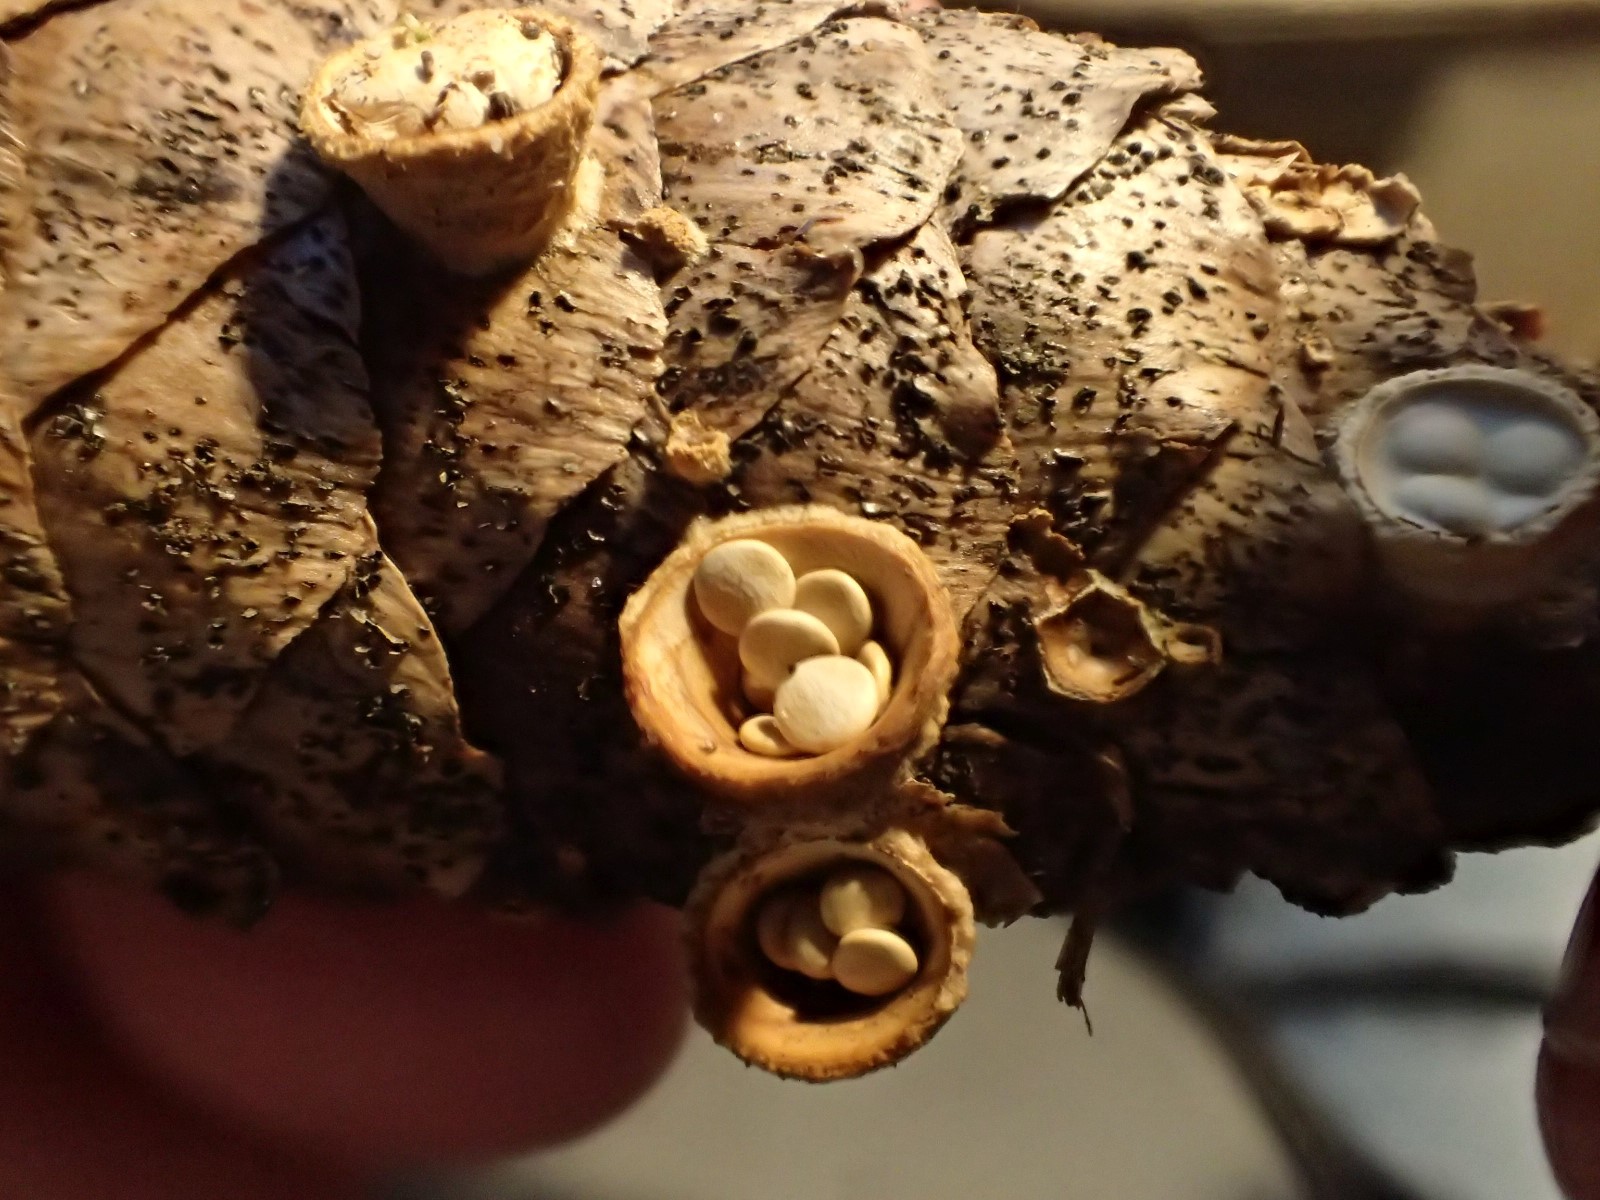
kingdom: Fungi
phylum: Basidiomycota
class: Agaricomycetes
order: Agaricales
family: Nidulariaceae
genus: Crucibulum
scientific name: Crucibulum crucibuliforme
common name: krukkesvamp
